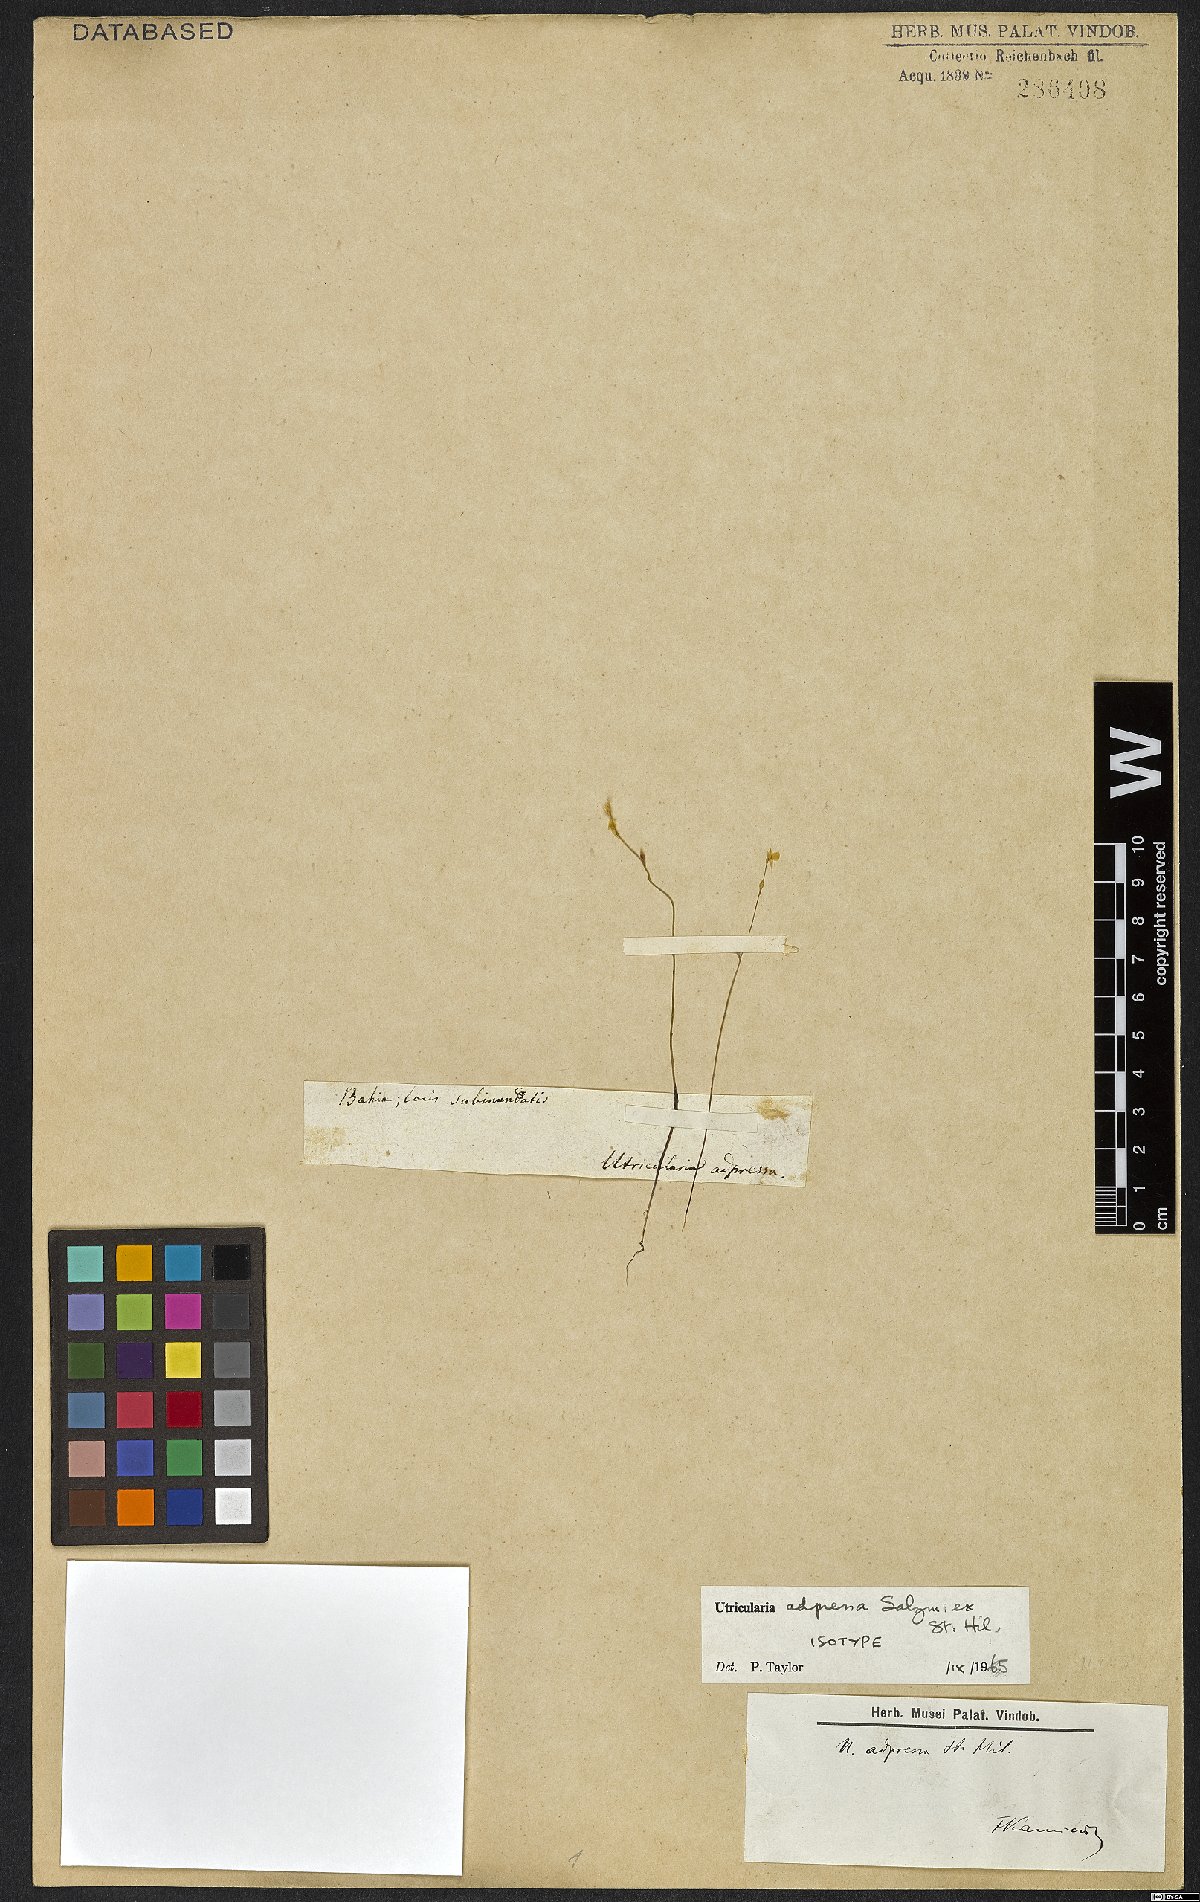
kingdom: Plantae
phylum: Tracheophyta
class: Magnoliopsida
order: Lamiales
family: Lentibulariaceae
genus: Utricularia
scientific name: Utricularia adpressa
